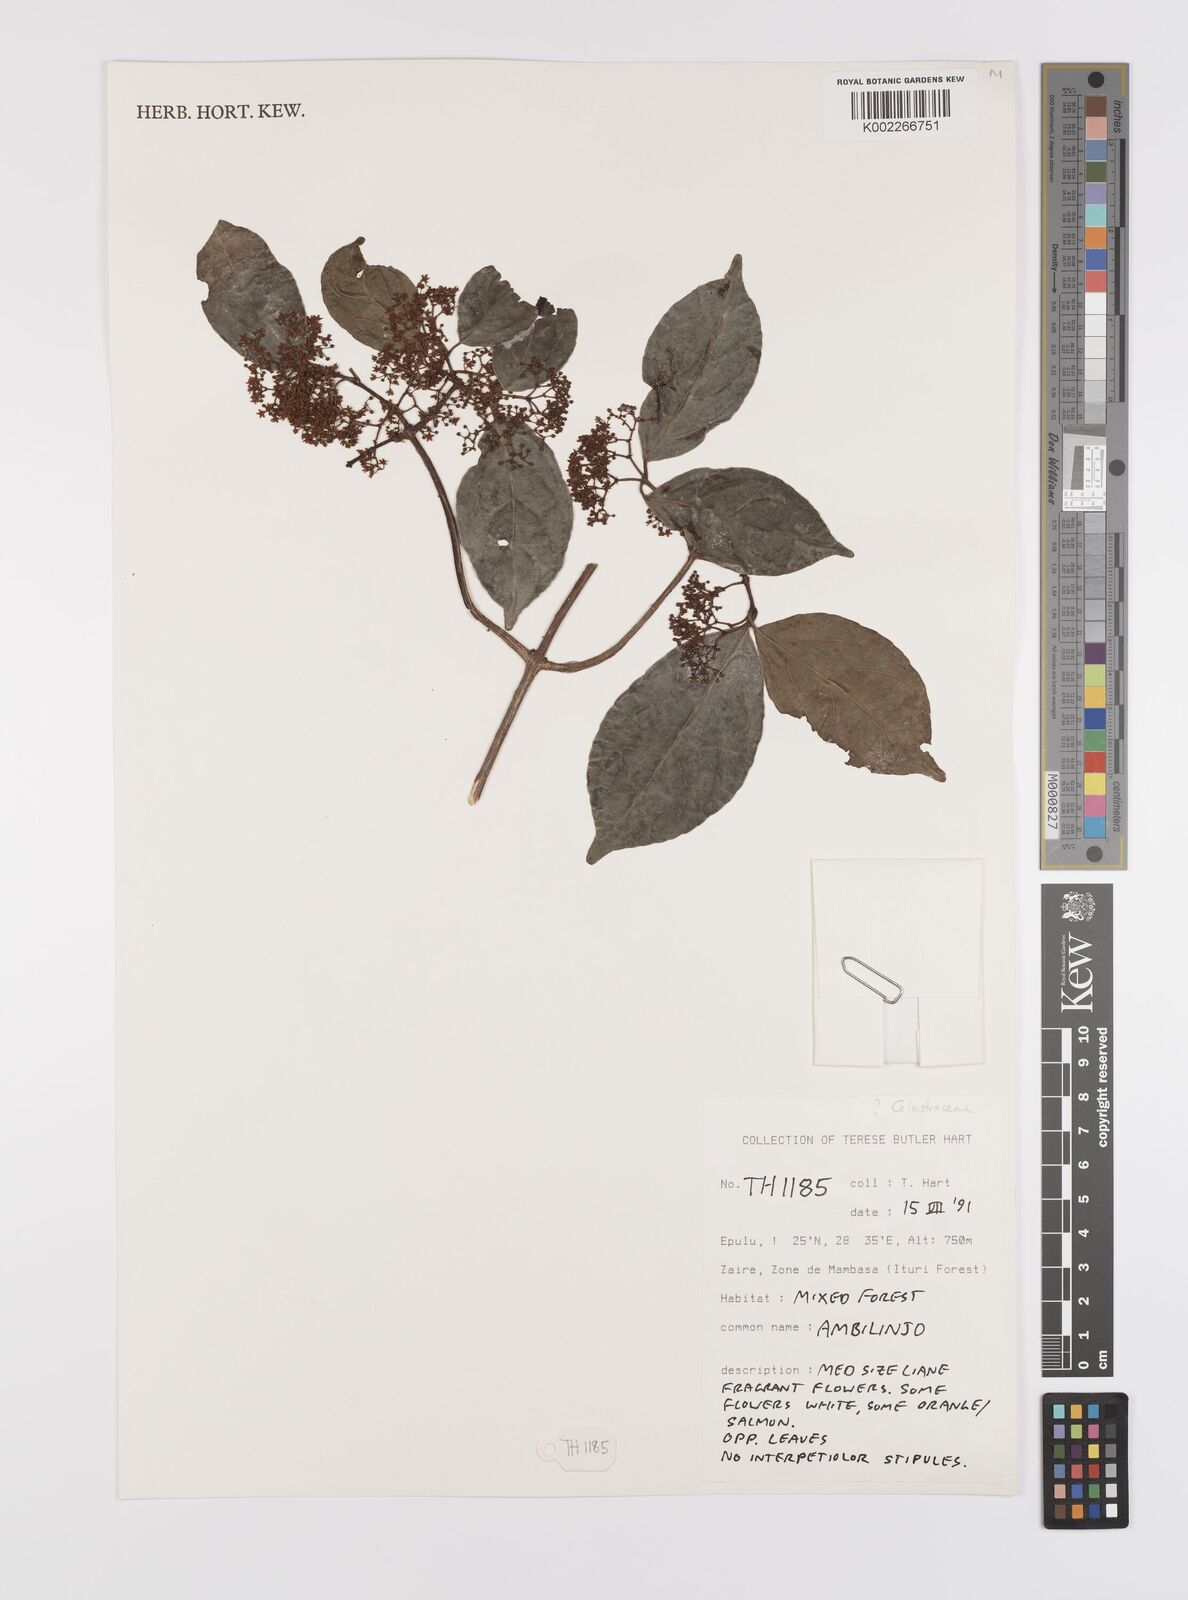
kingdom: Plantae
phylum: Tracheophyta
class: Magnoliopsida
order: Celastrales
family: Celastraceae
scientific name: Celastraceae
